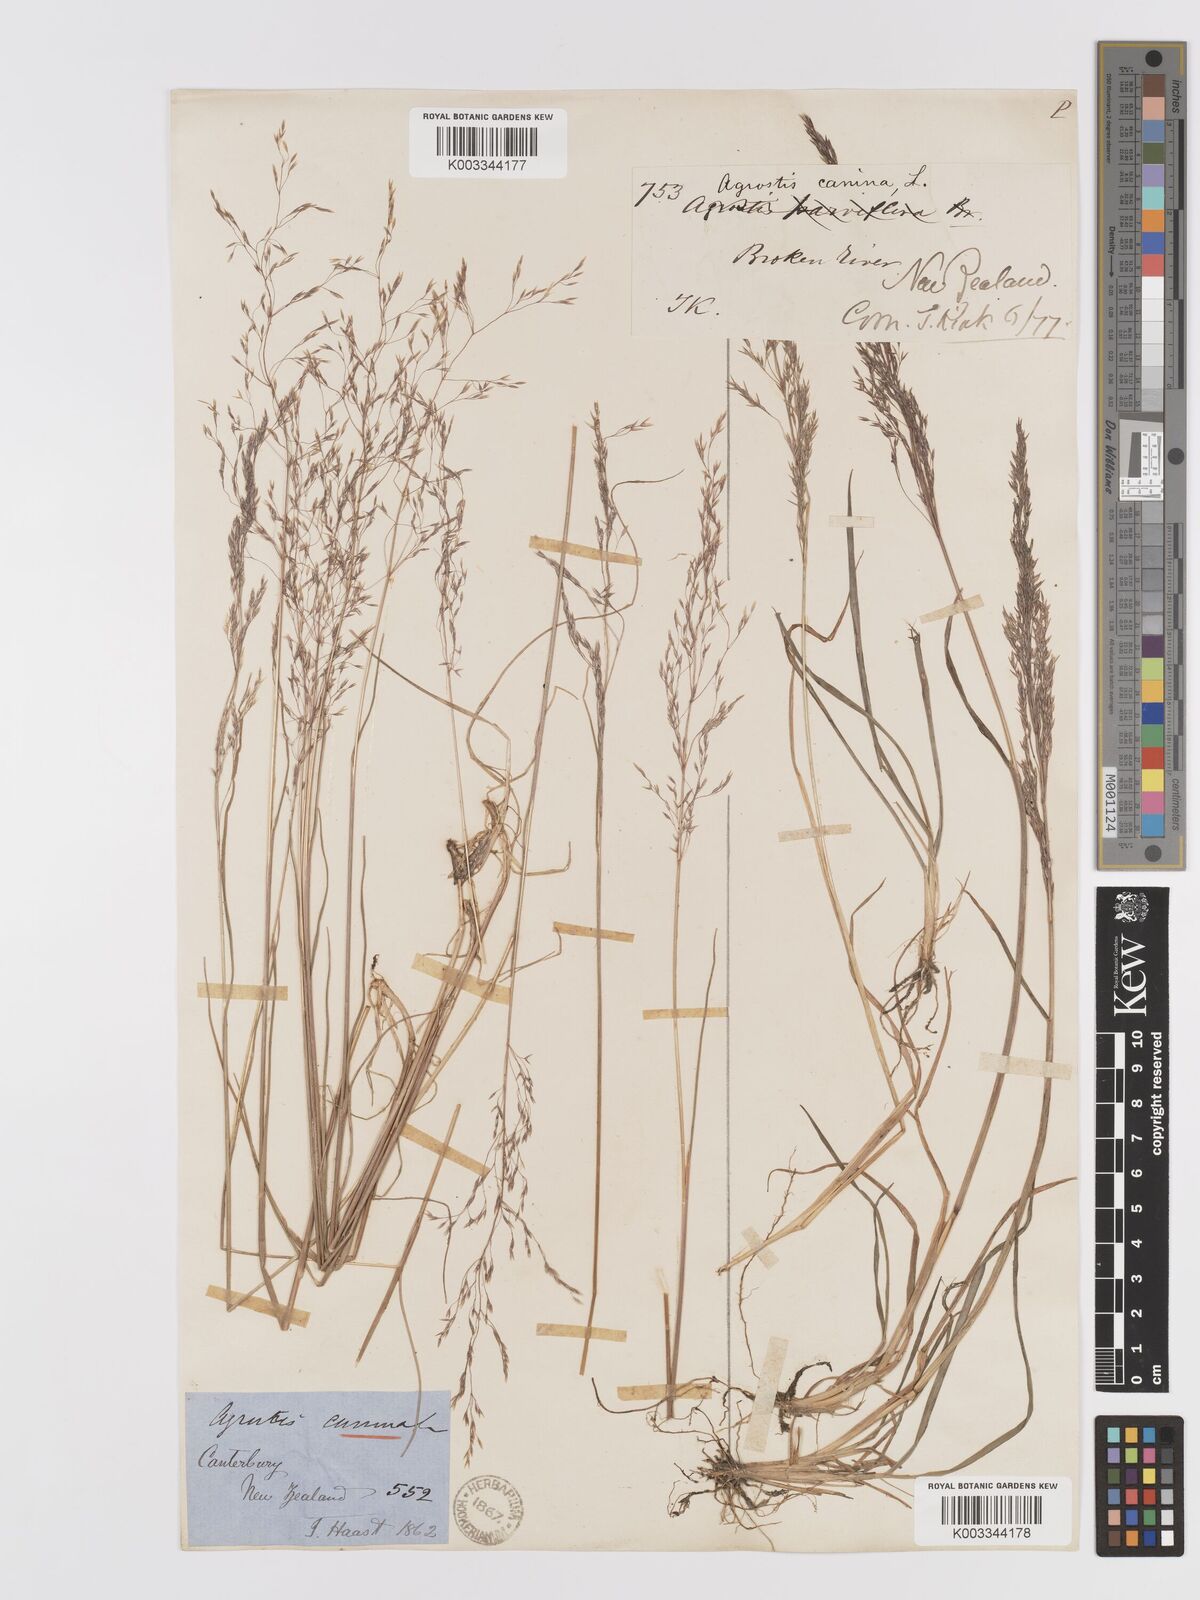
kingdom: Plantae
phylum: Tracheophyta
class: Liliopsida
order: Poales
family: Poaceae
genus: Agrostis
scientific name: Agrostis personata
